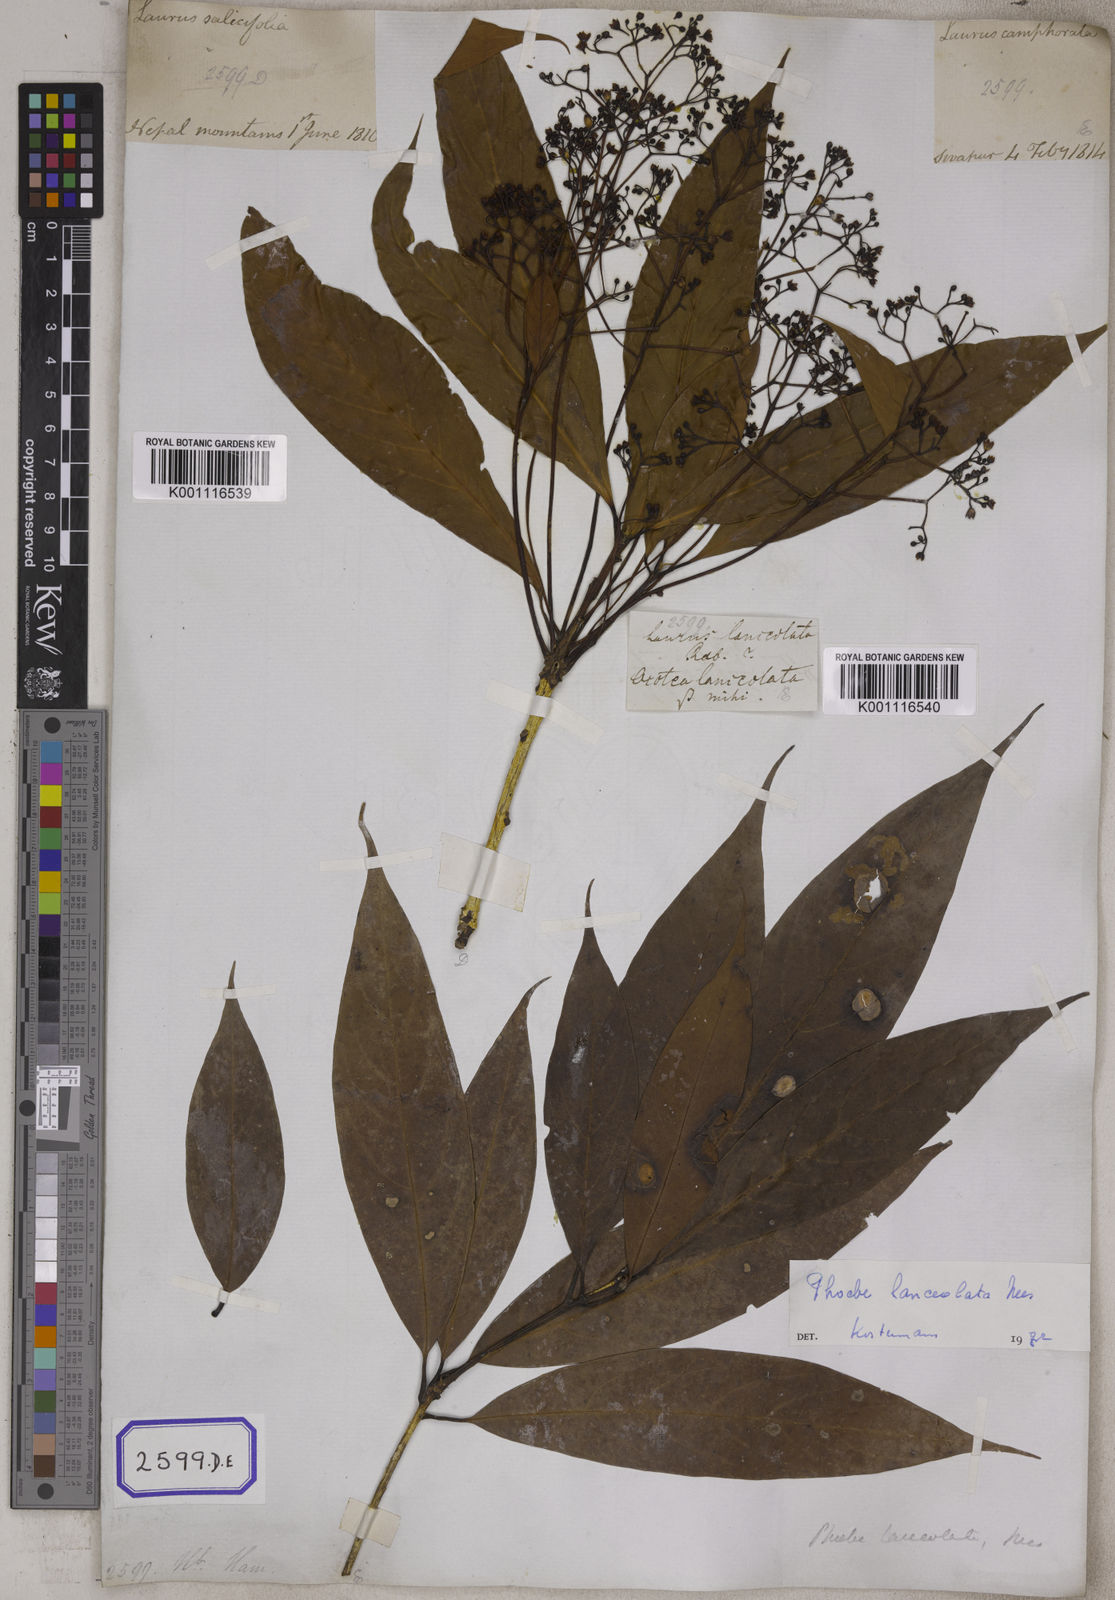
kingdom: Plantae
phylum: Tracheophyta
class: Magnoliopsida
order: Laurales
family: Lauraceae
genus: Laurus
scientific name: Laurus
